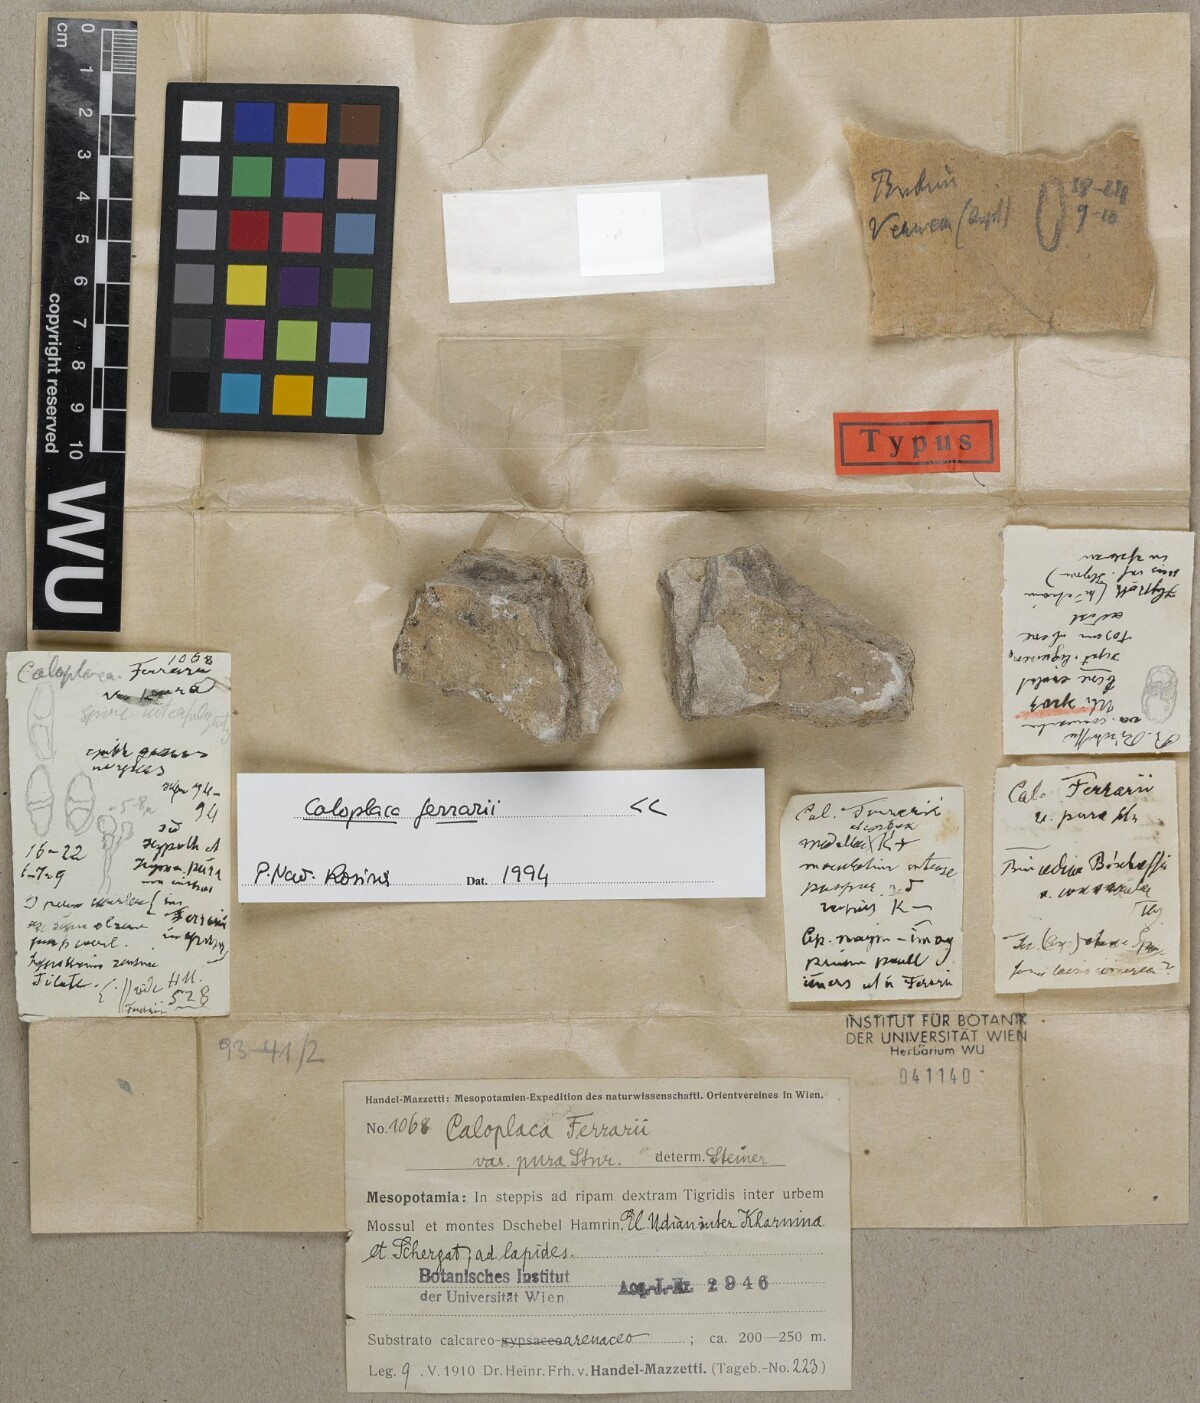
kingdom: Fungi
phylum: Ascomycota
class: Lecanoromycetes
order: Teloschistales
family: Teloschistaceae
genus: Xanthocarpia
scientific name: Xanthocarpia ferrarii
